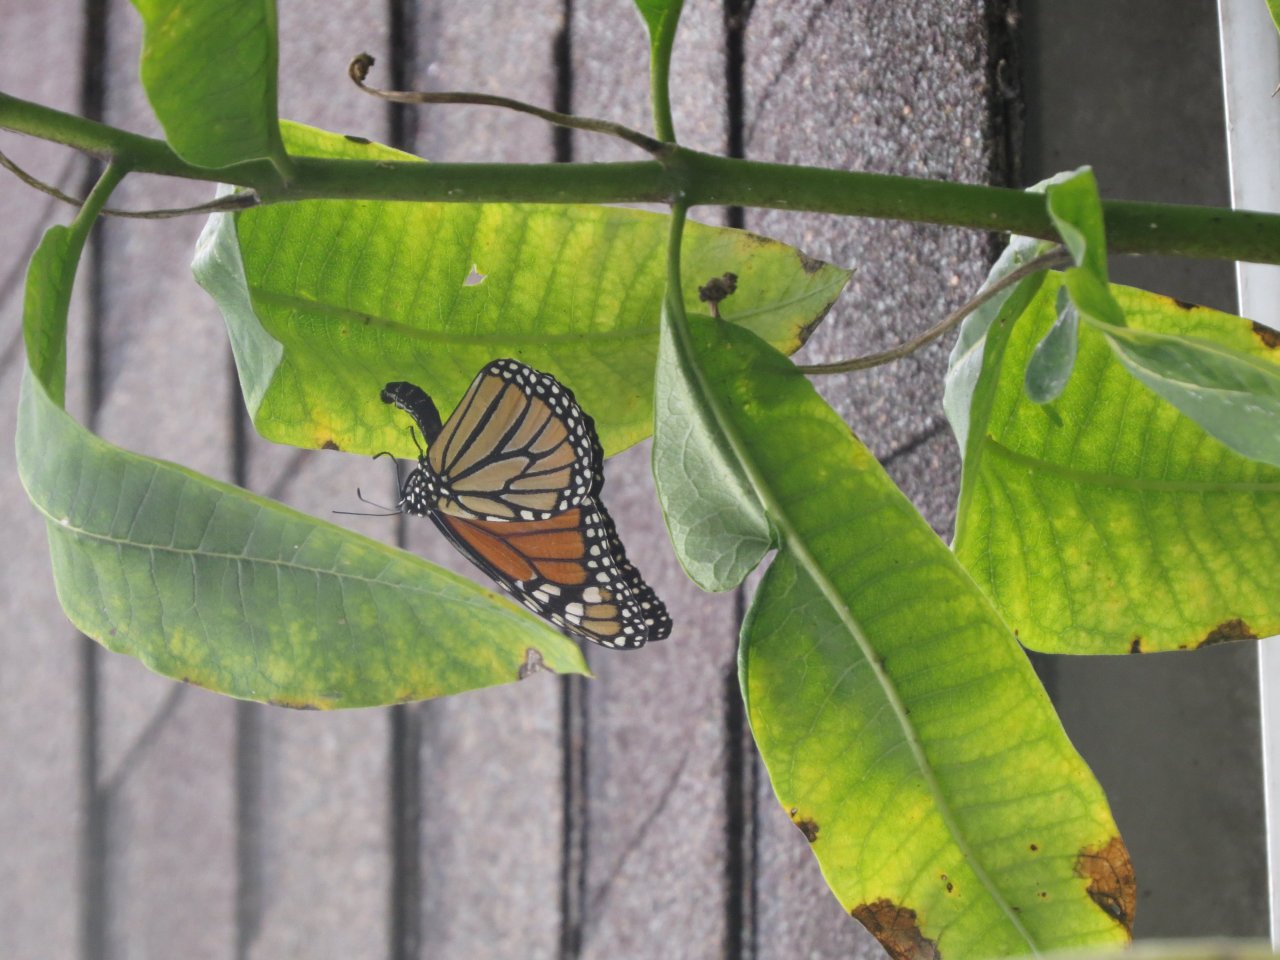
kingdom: Animalia
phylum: Arthropoda
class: Insecta
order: Lepidoptera
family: Nymphalidae
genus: Danaus
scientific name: Danaus plexippus
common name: Monarch
